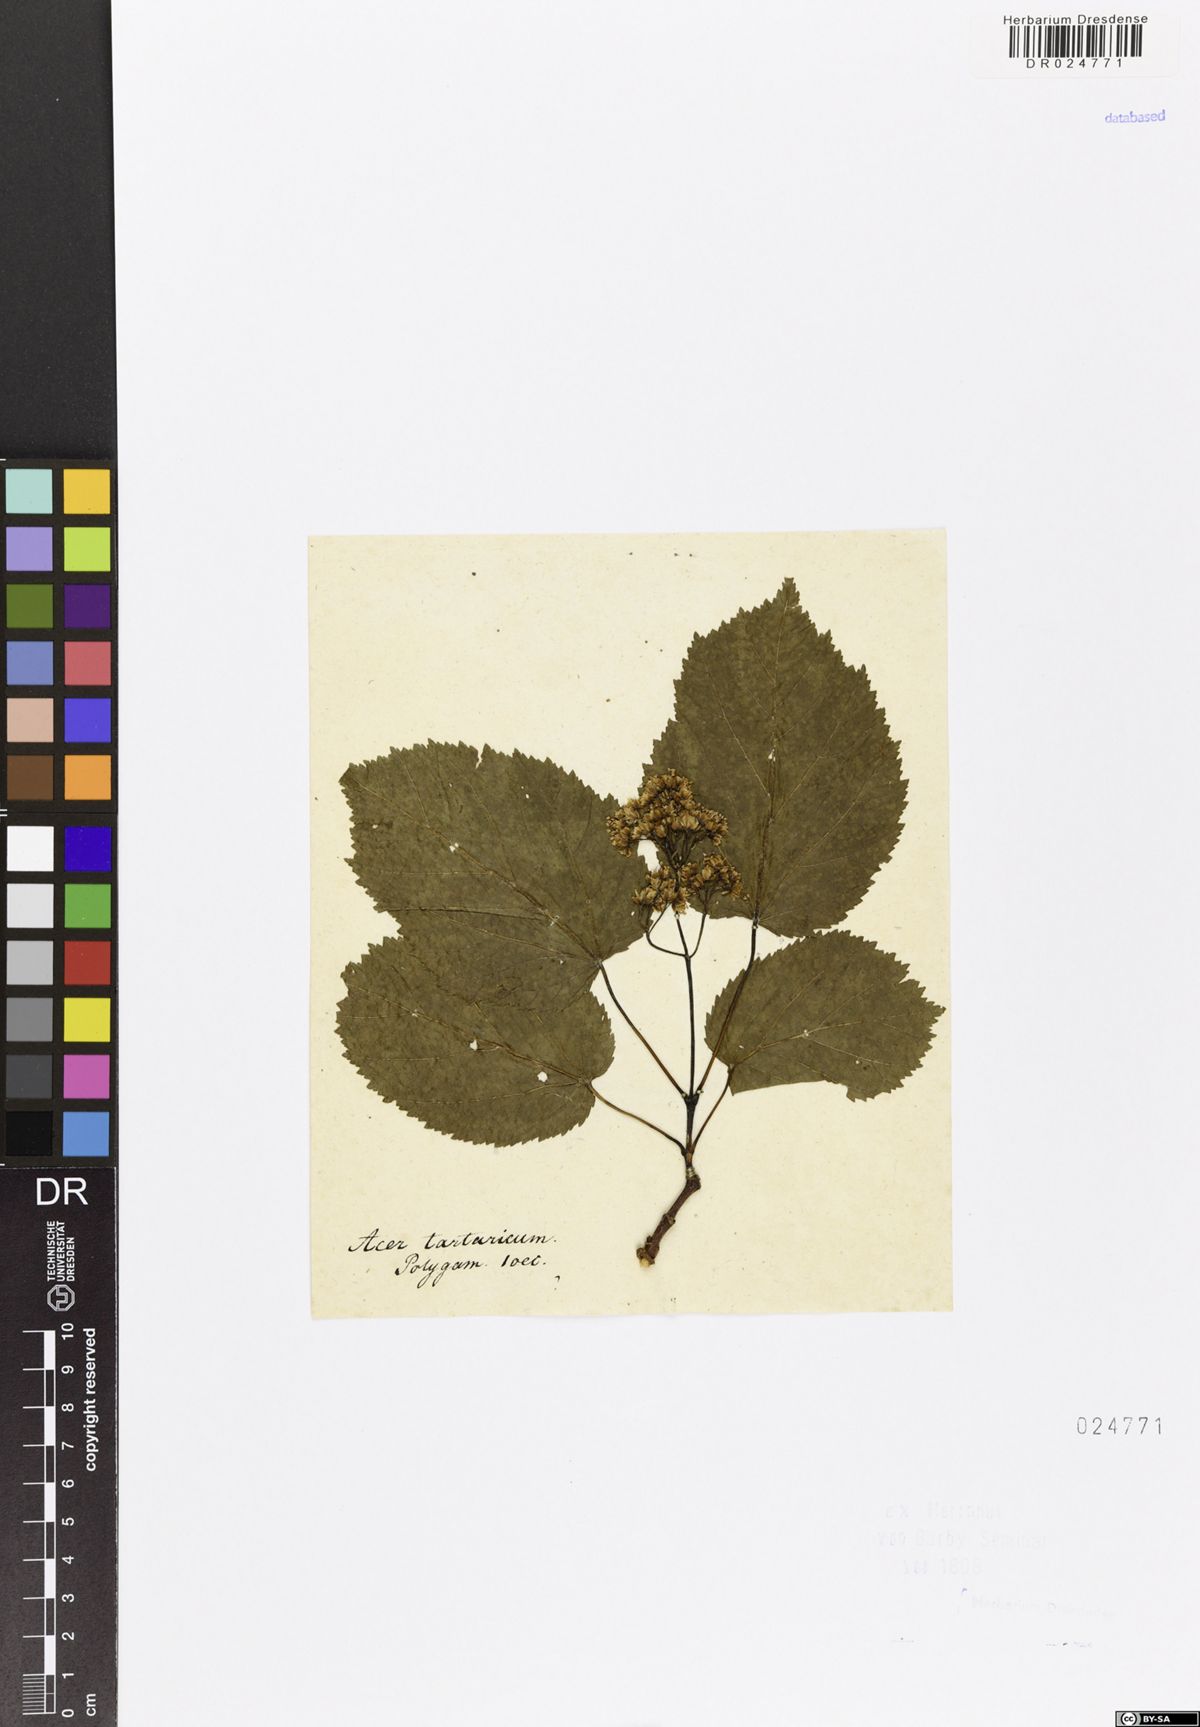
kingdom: Plantae
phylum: Tracheophyta
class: Magnoliopsida
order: Sapindales
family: Sapindaceae
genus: Acer
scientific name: Acer tataricum
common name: Tartar maple
